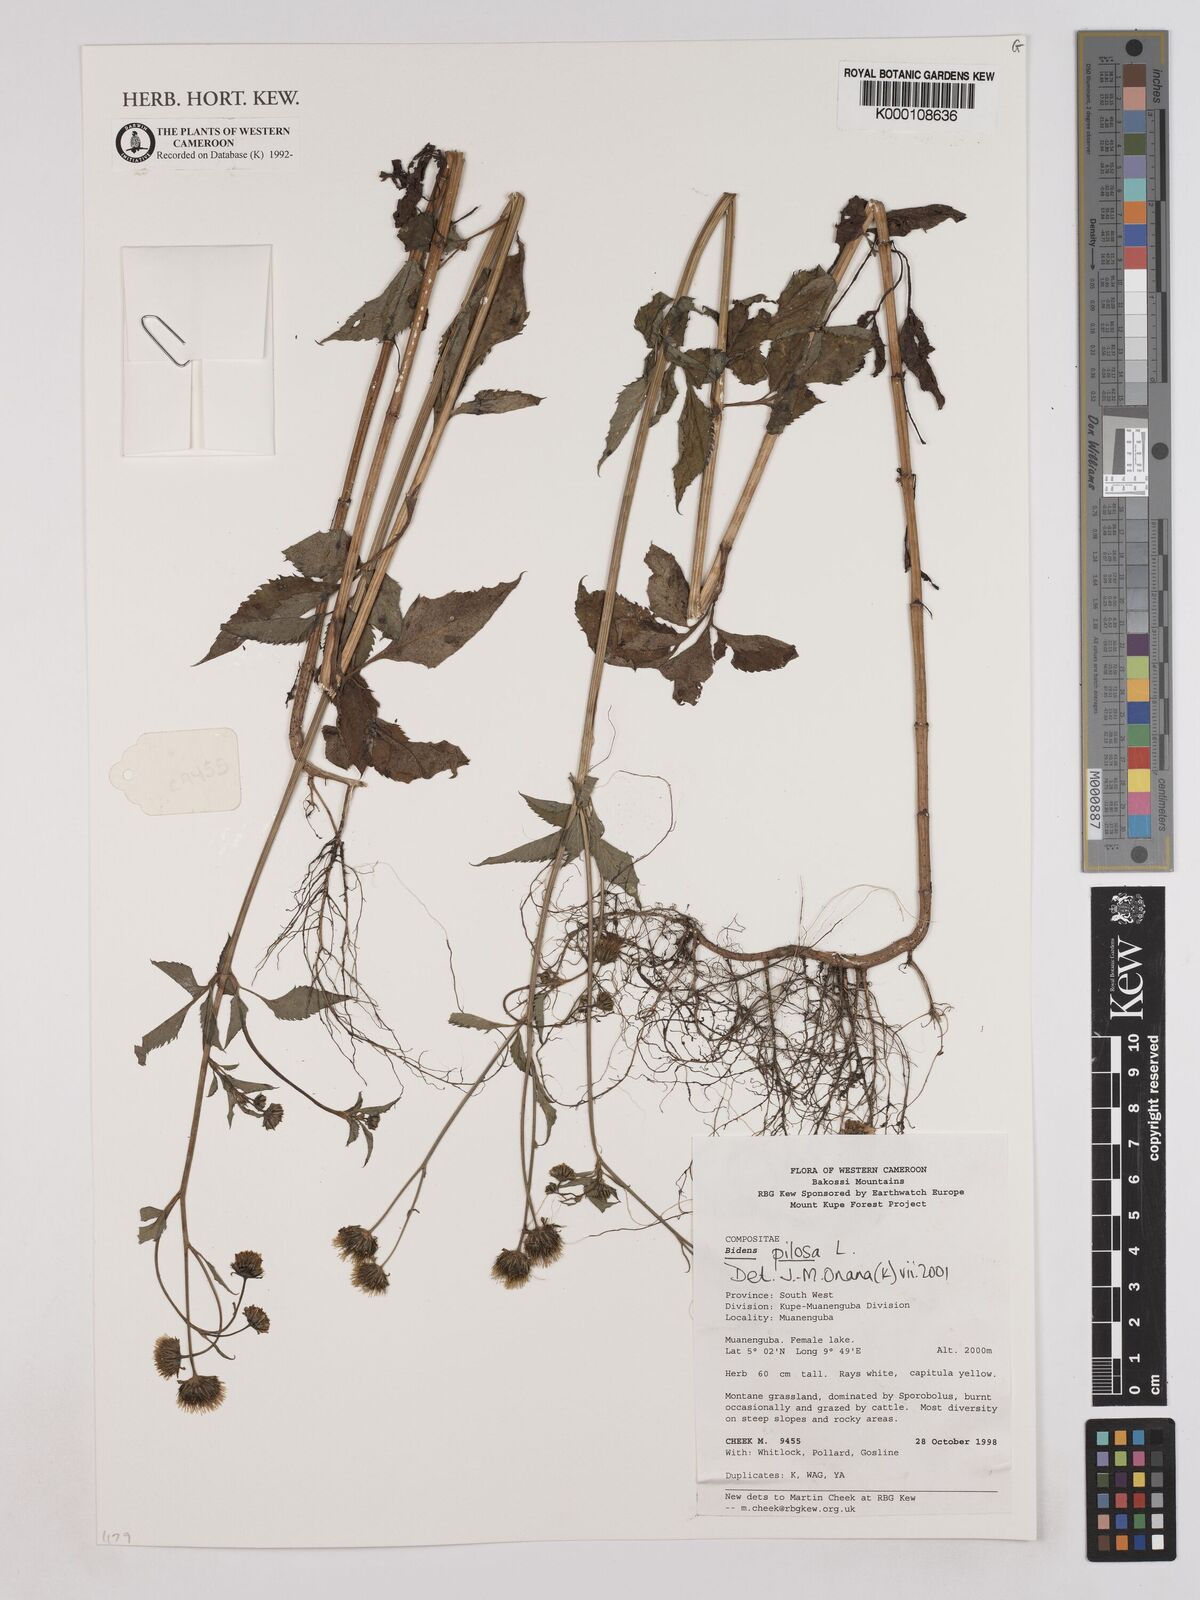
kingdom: Plantae
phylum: Tracheophyta
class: Magnoliopsida
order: Asterales
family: Asteraceae
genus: Bidens
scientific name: Bidens pilosa
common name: Black-jack
